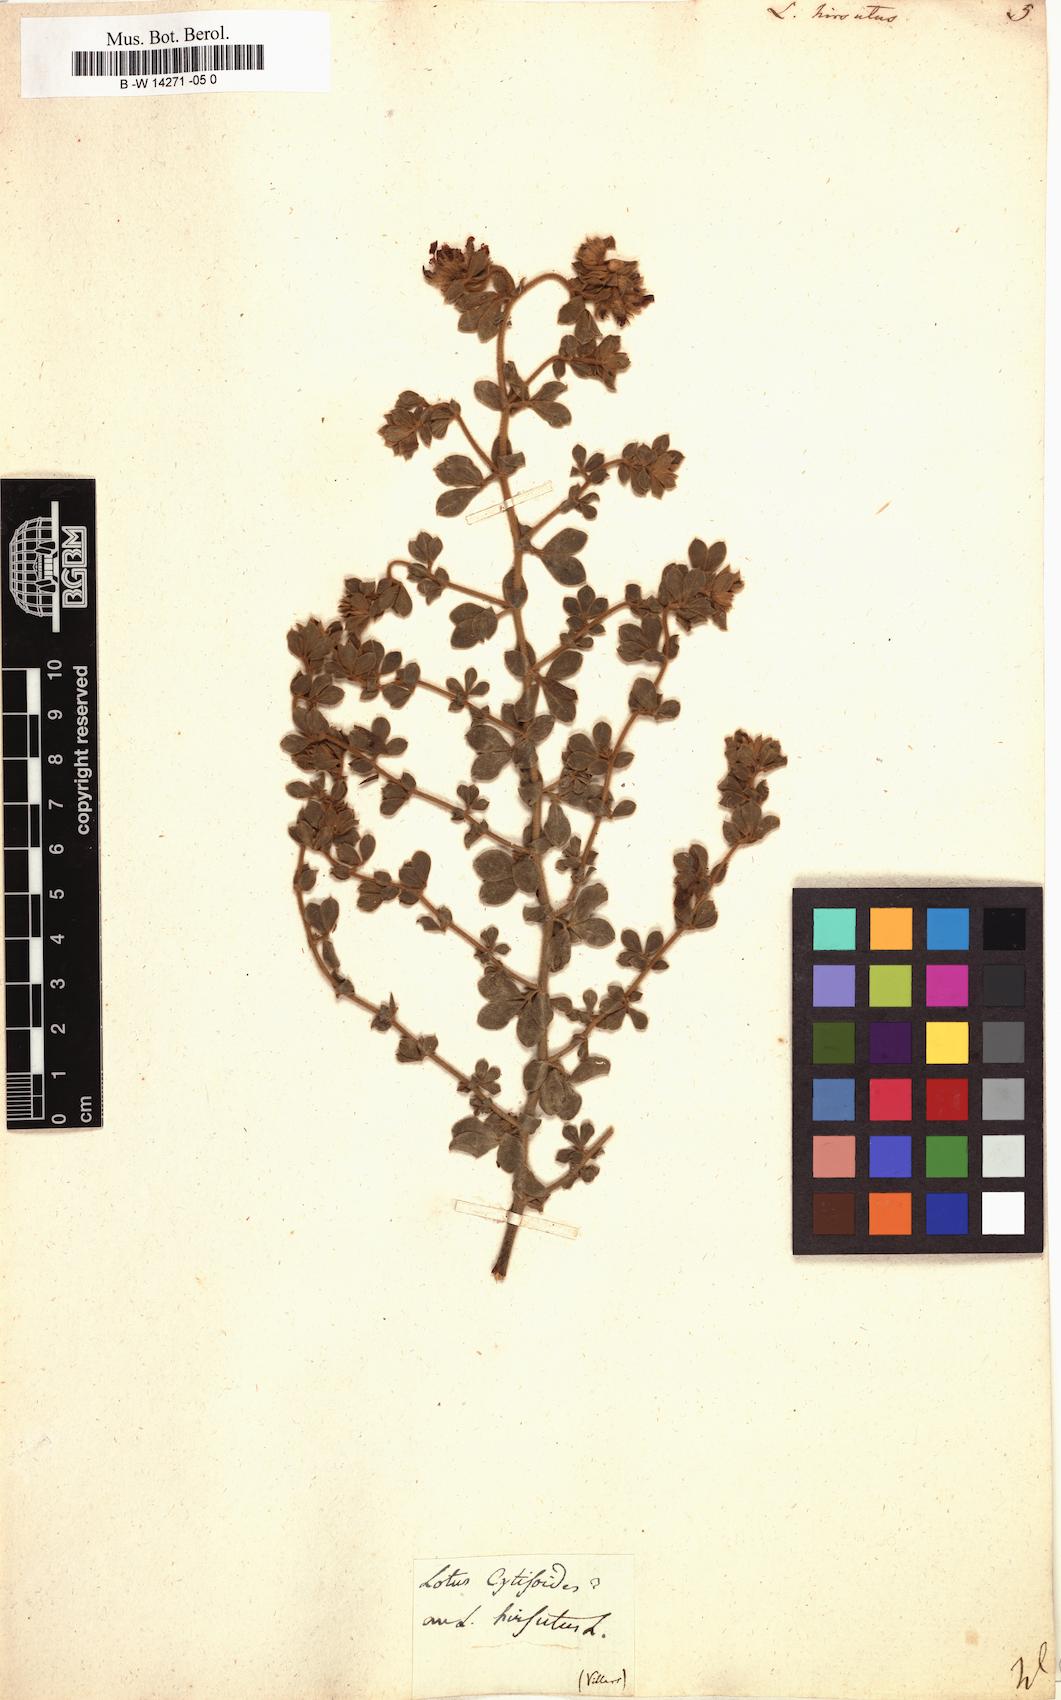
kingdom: Plantae
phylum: Tracheophyta
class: Magnoliopsida
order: Fabales
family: Fabaceae
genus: Lotus
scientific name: Lotus hirsutus
